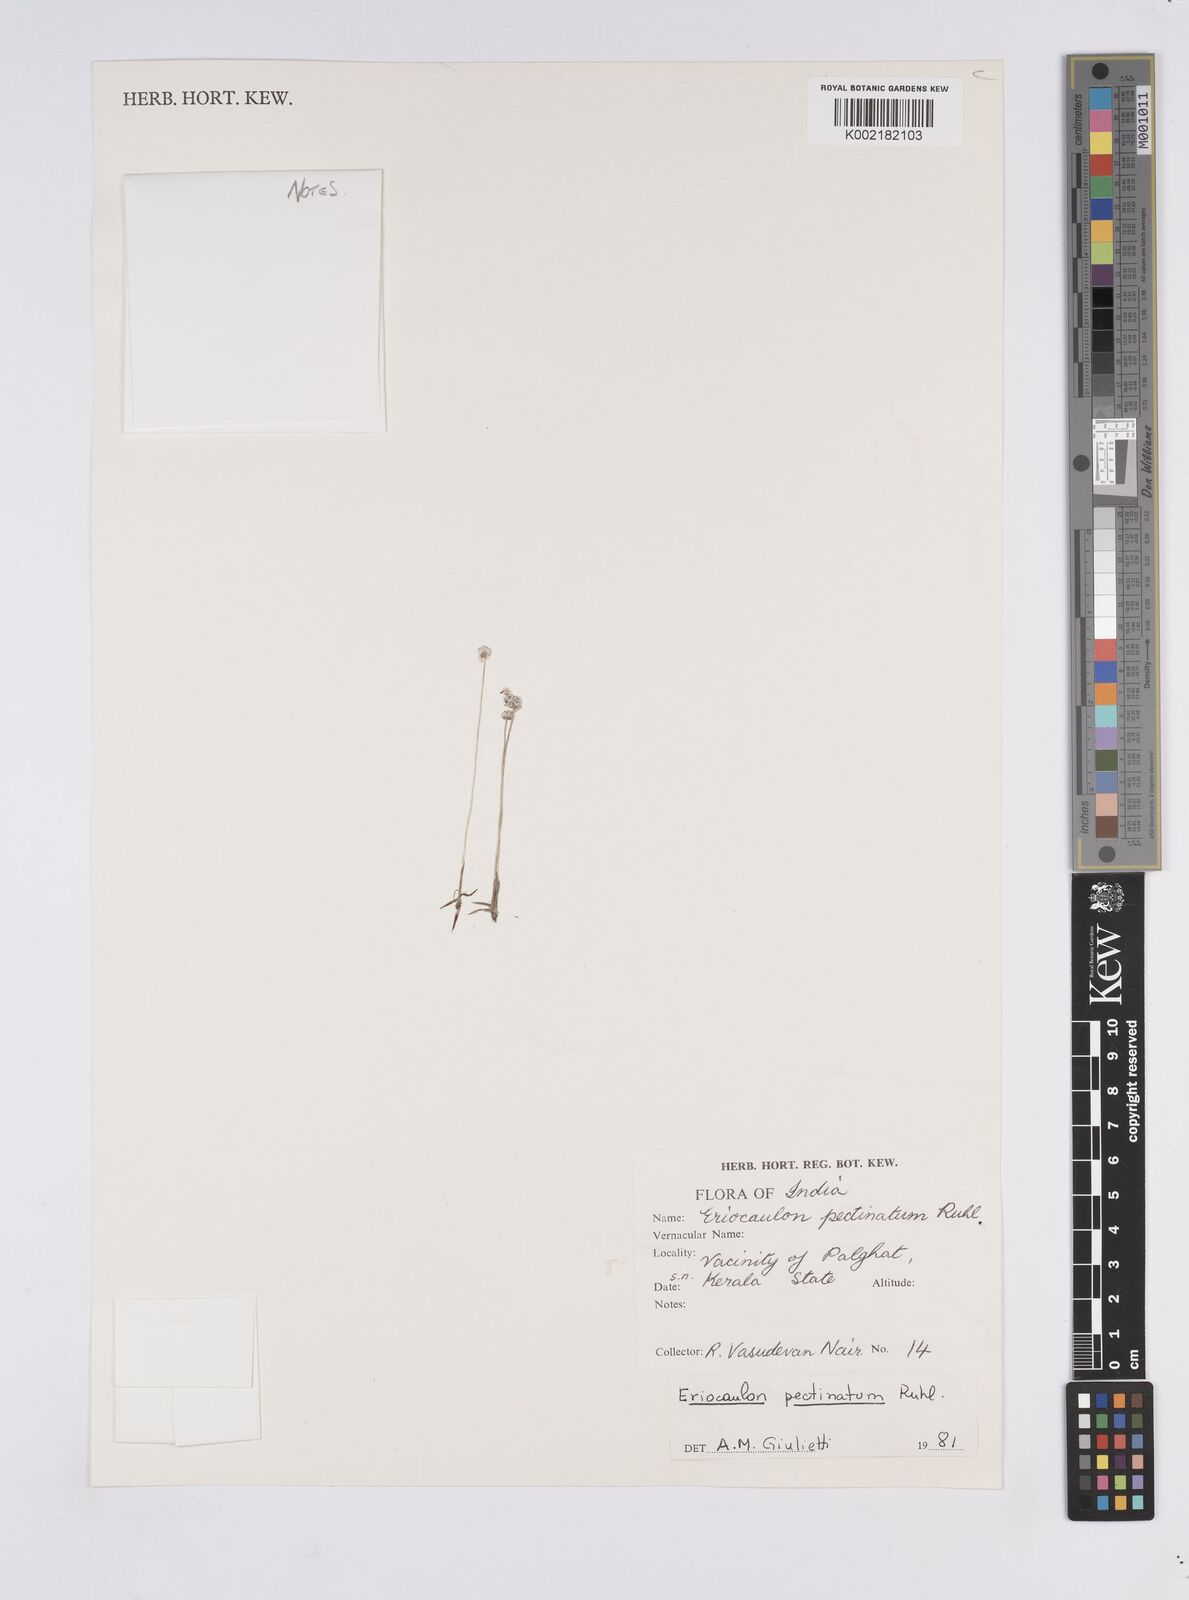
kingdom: Plantae
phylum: Tracheophyta
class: Liliopsida
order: Poales
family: Eriocaulaceae
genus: Eriocaulon
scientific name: Eriocaulon
